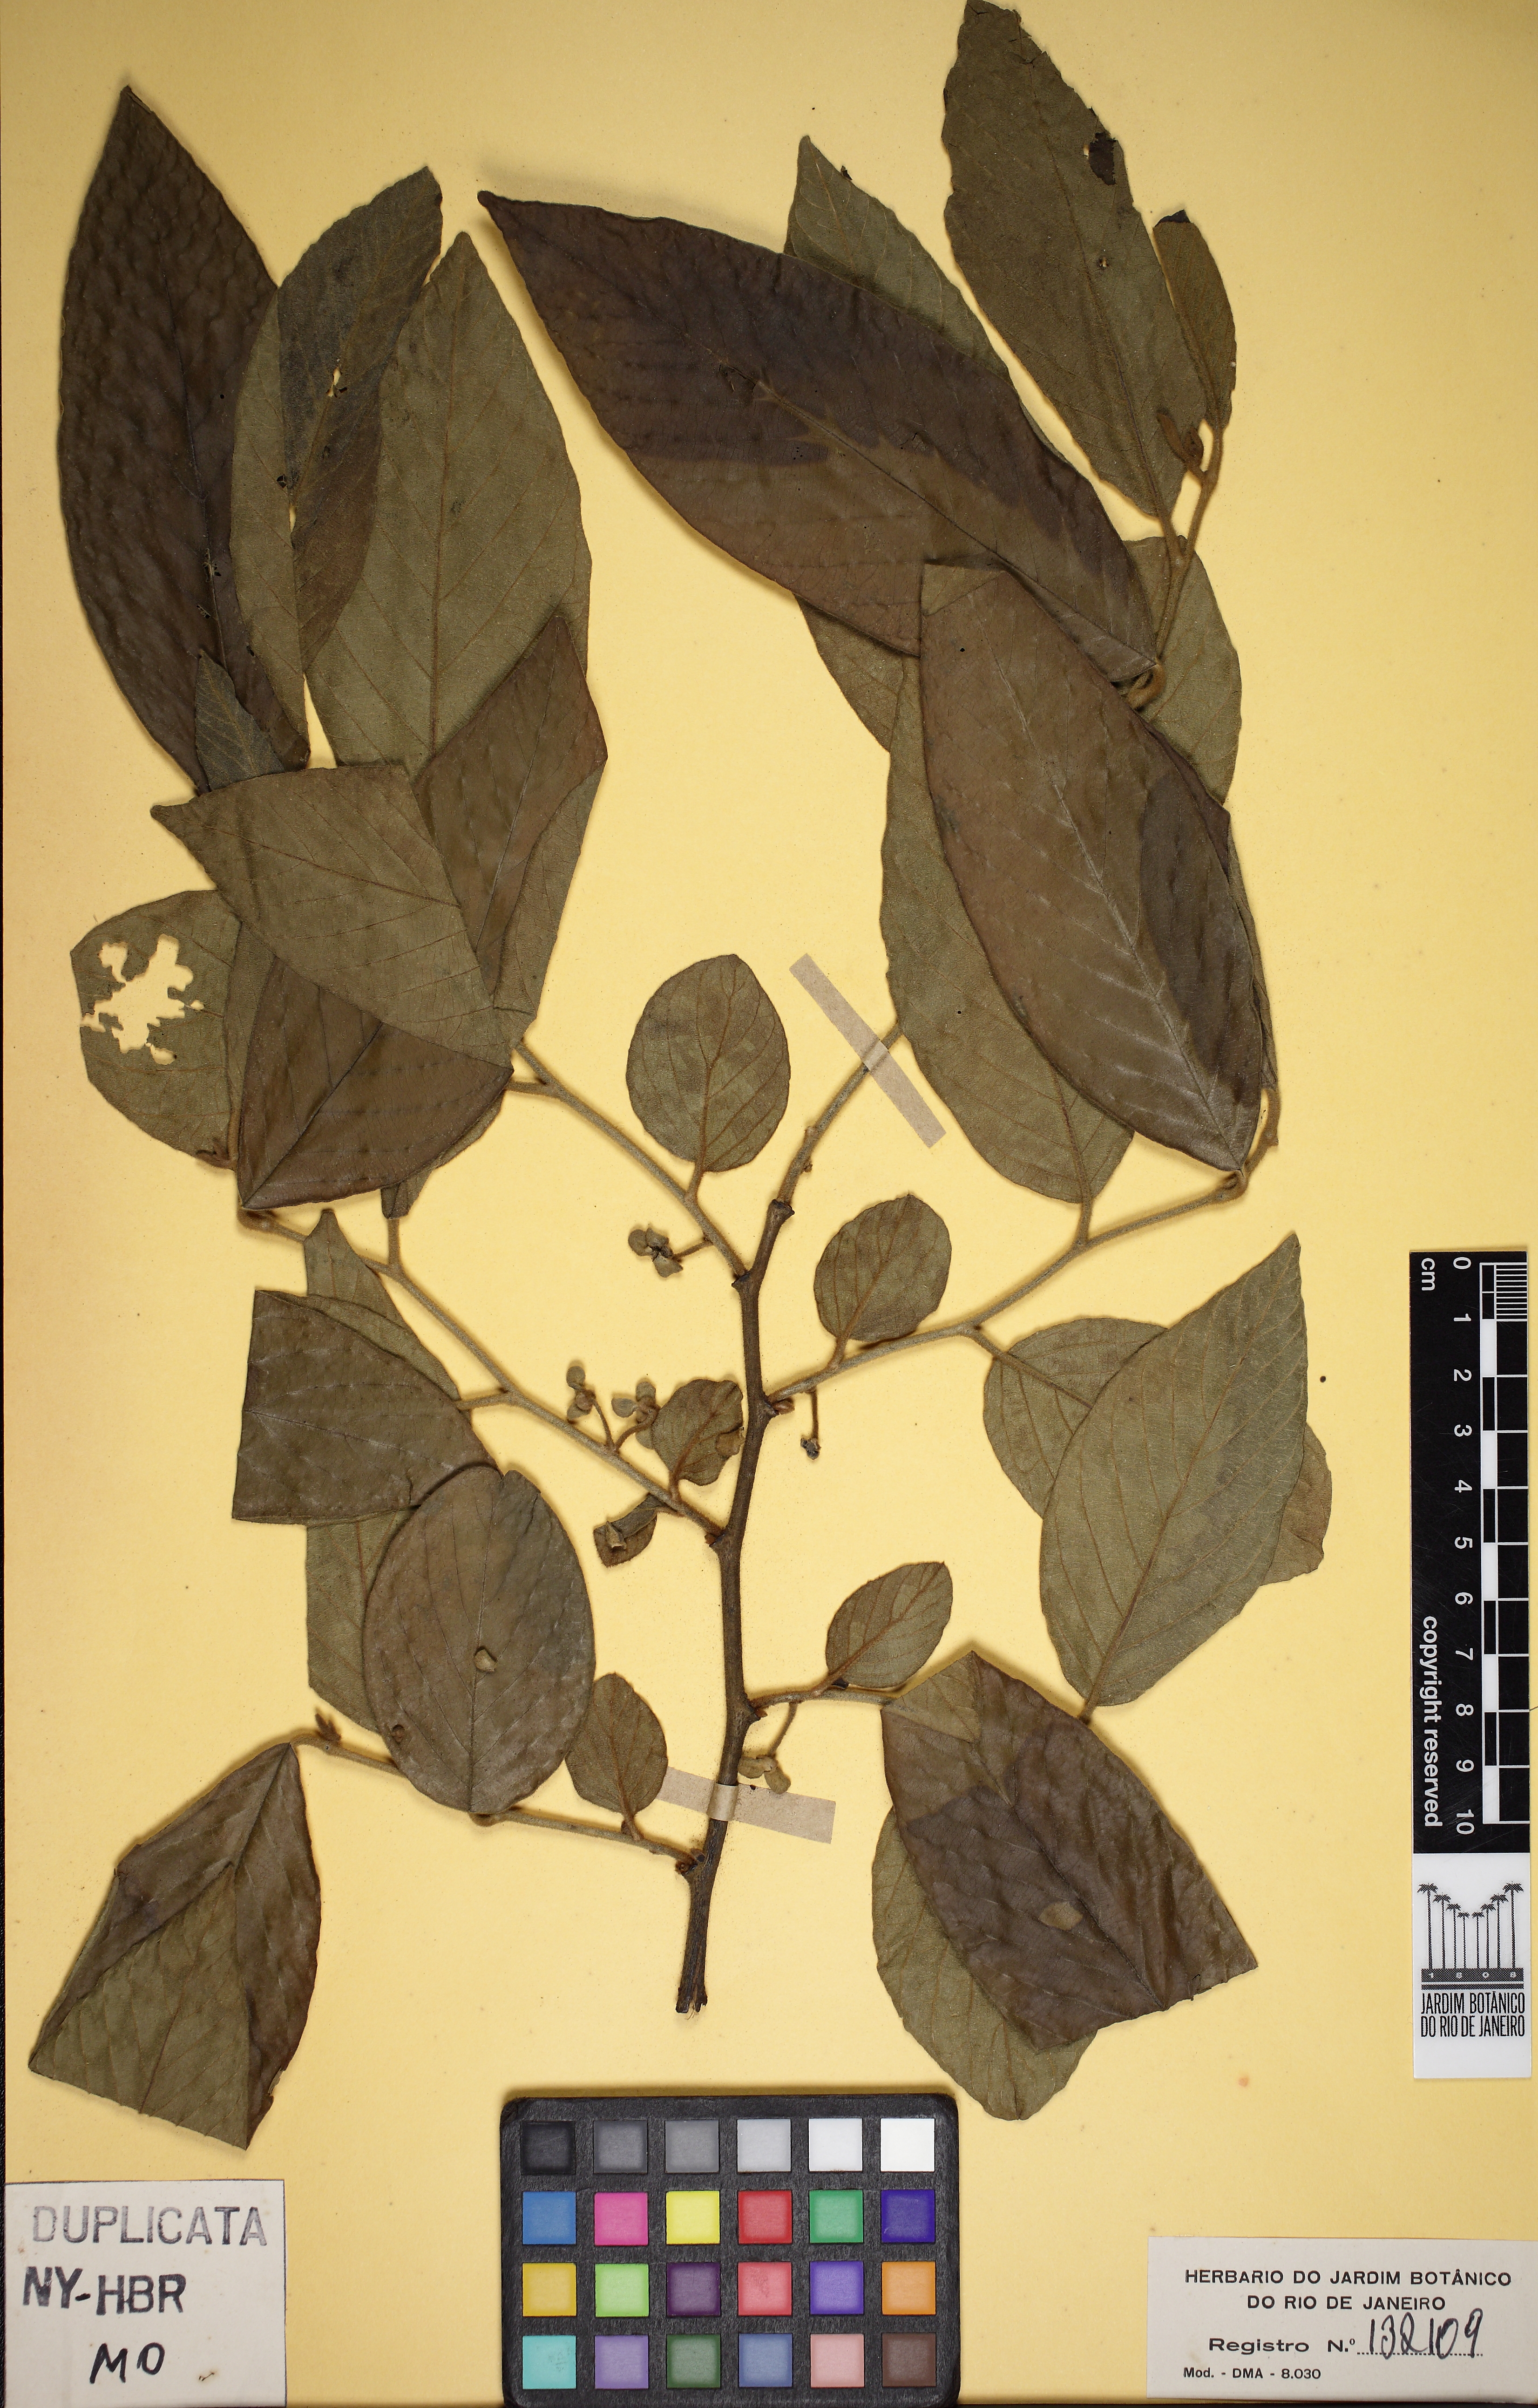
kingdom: Plantae
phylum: Tracheophyta
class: Magnoliopsida
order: Magnoliales
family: Annonaceae
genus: Annona
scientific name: Annona sylvatica
